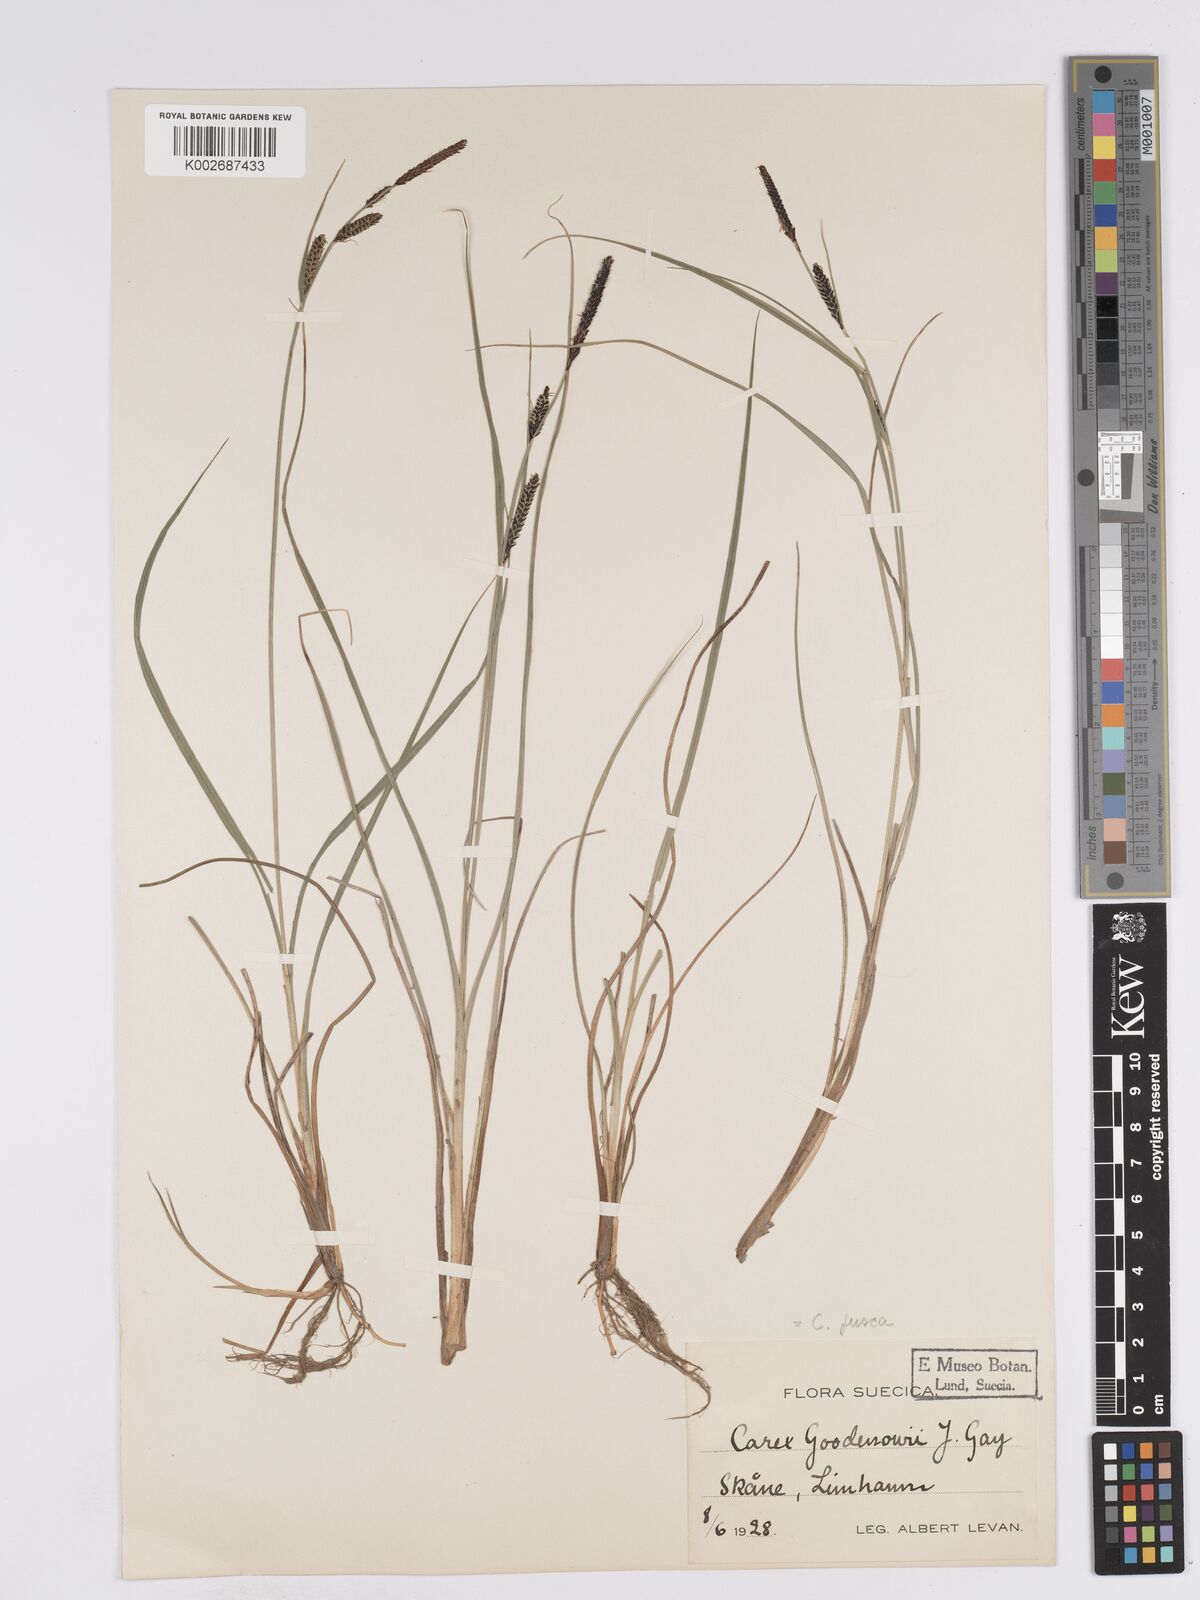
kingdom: Plantae
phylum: Tracheophyta
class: Liliopsida
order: Poales
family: Cyperaceae
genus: Carex
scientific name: Carex nigra
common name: Common sedge
